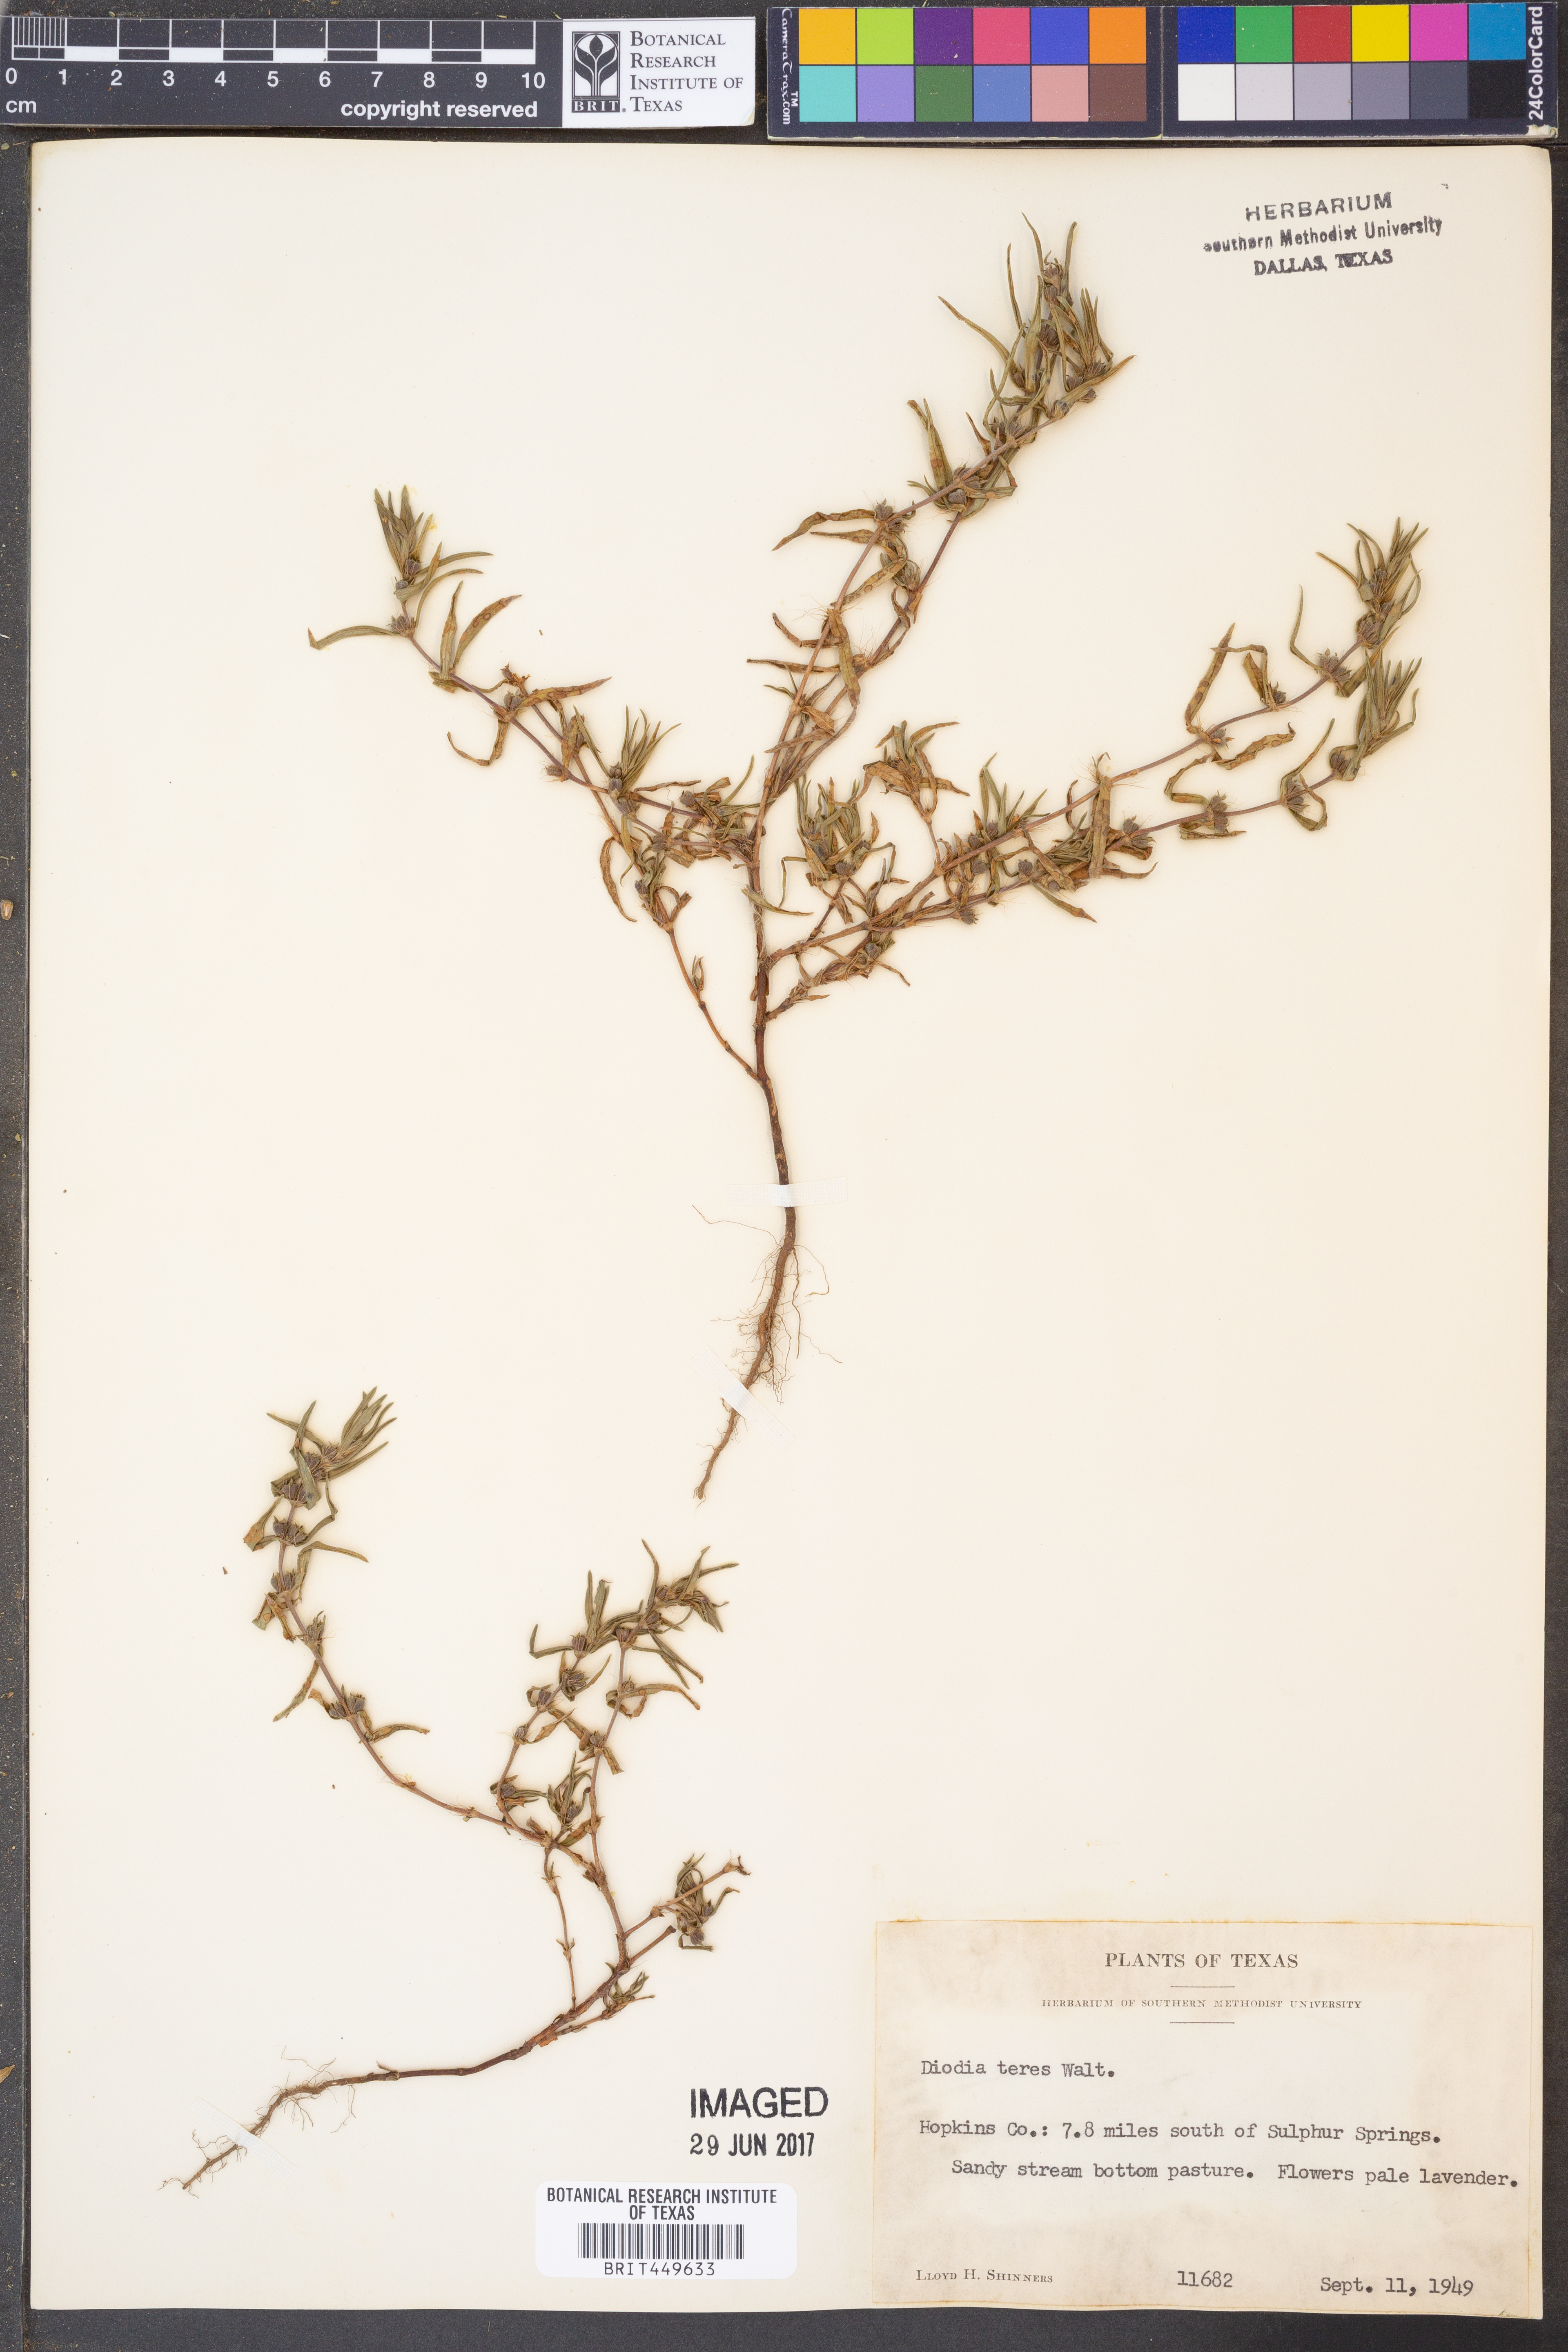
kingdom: Plantae
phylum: Tracheophyta
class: Magnoliopsida
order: Gentianales
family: Rubiaceae
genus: Hexasepalum
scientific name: Hexasepalum teres
